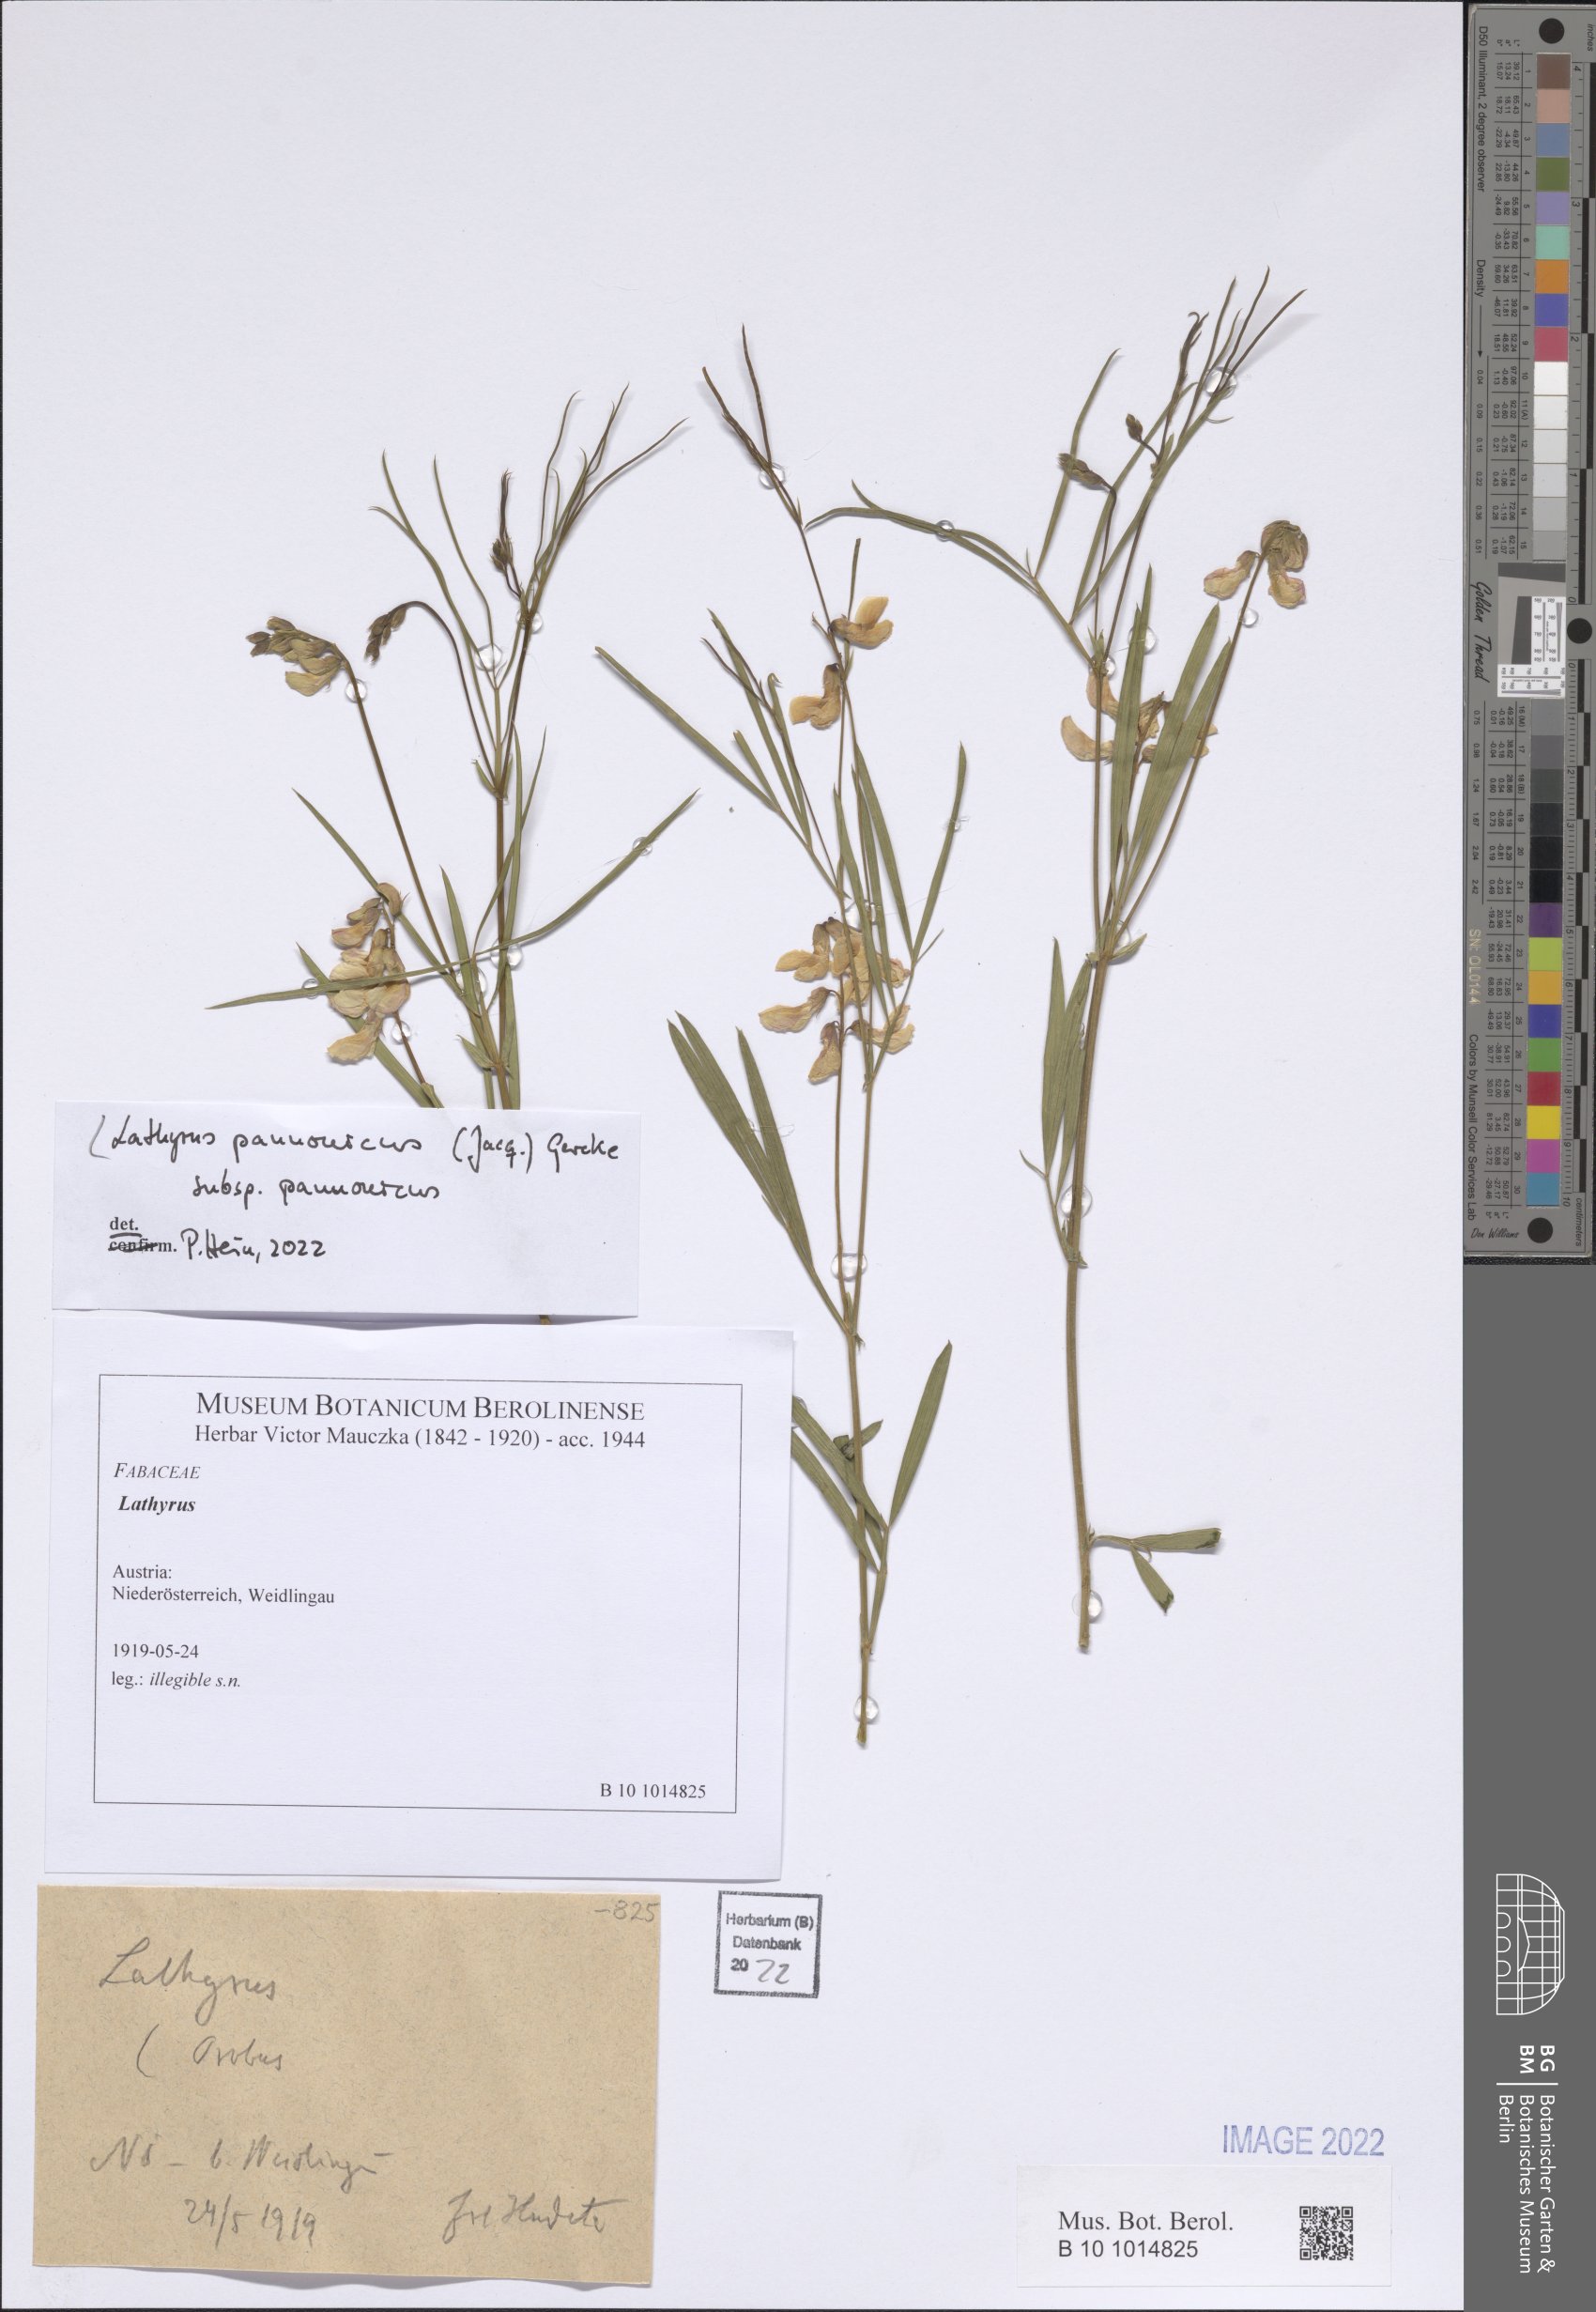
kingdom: Plantae
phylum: Tracheophyta
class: Magnoliopsida
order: Fabales
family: Fabaceae
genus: Lathyrus
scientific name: Lathyrus pannonicus
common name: Pea
